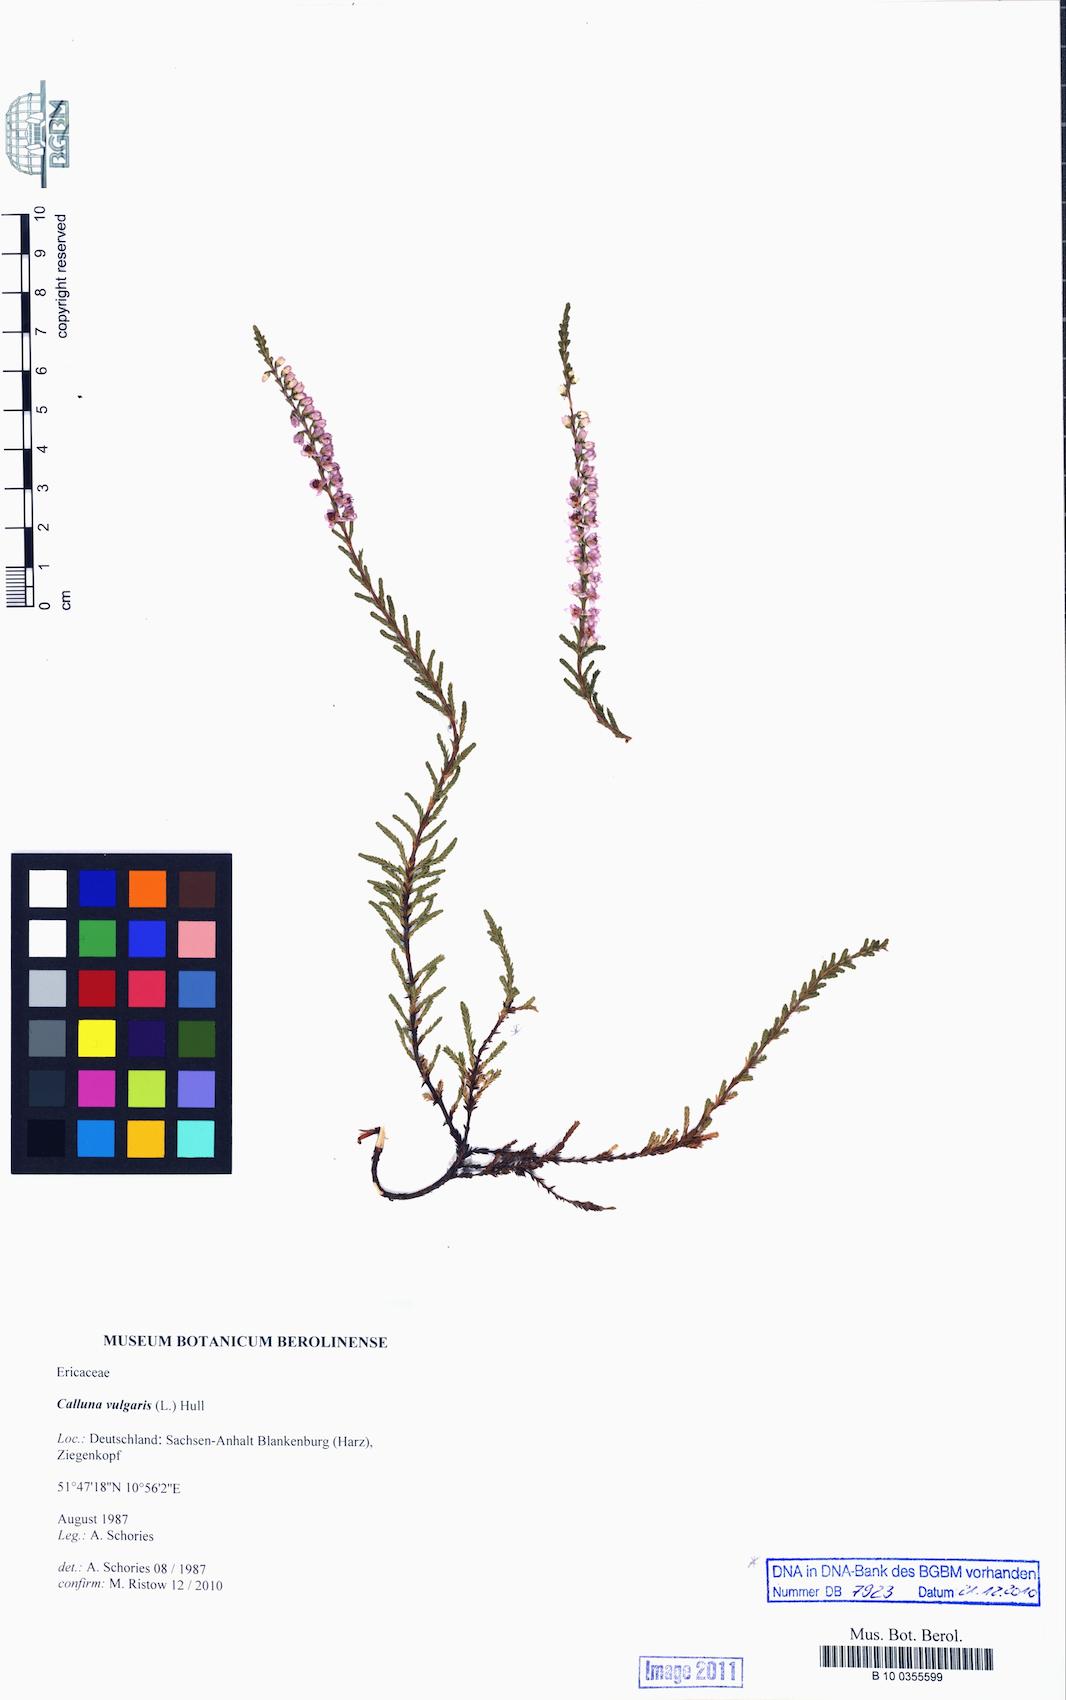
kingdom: Plantae
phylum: Tracheophyta
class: Magnoliopsida
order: Ericales
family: Ericaceae
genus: Calluna
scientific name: Calluna vulgaris
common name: Heather
